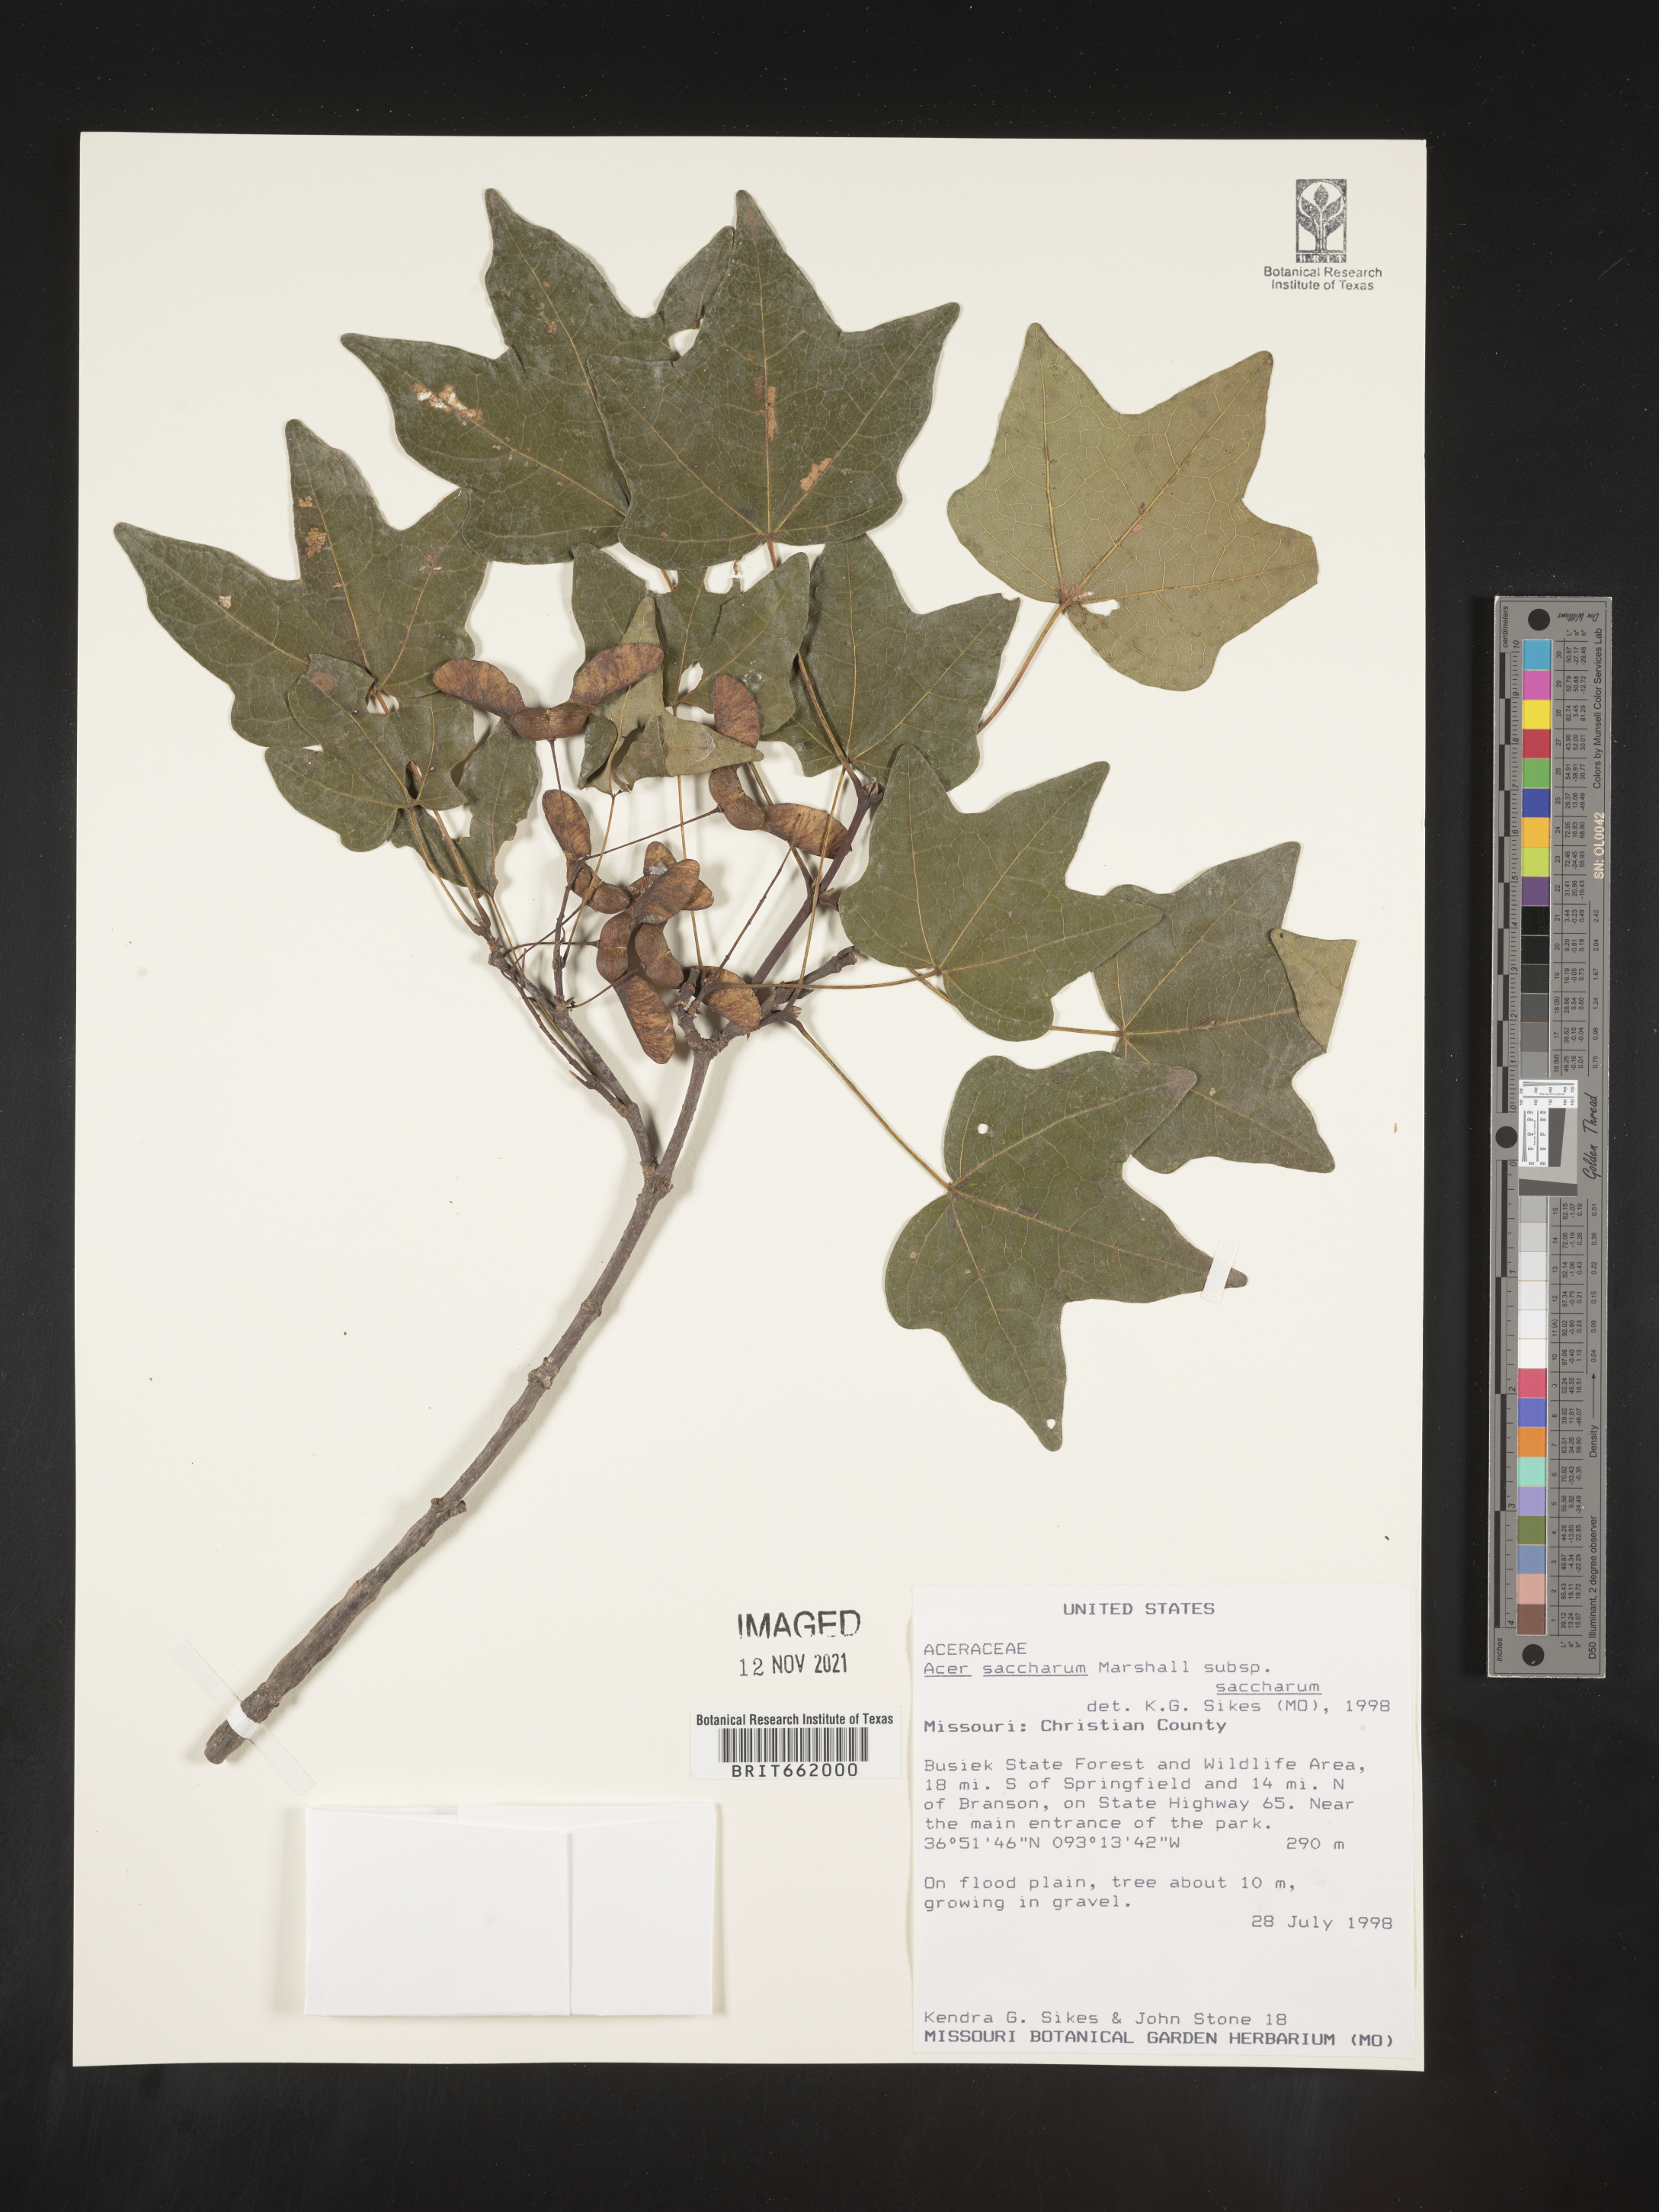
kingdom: Plantae
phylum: Tracheophyta
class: Magnoliopsida
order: Sapindales
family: Sapindaceae
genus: Acer
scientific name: Acer saccharum
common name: Sugar maple
